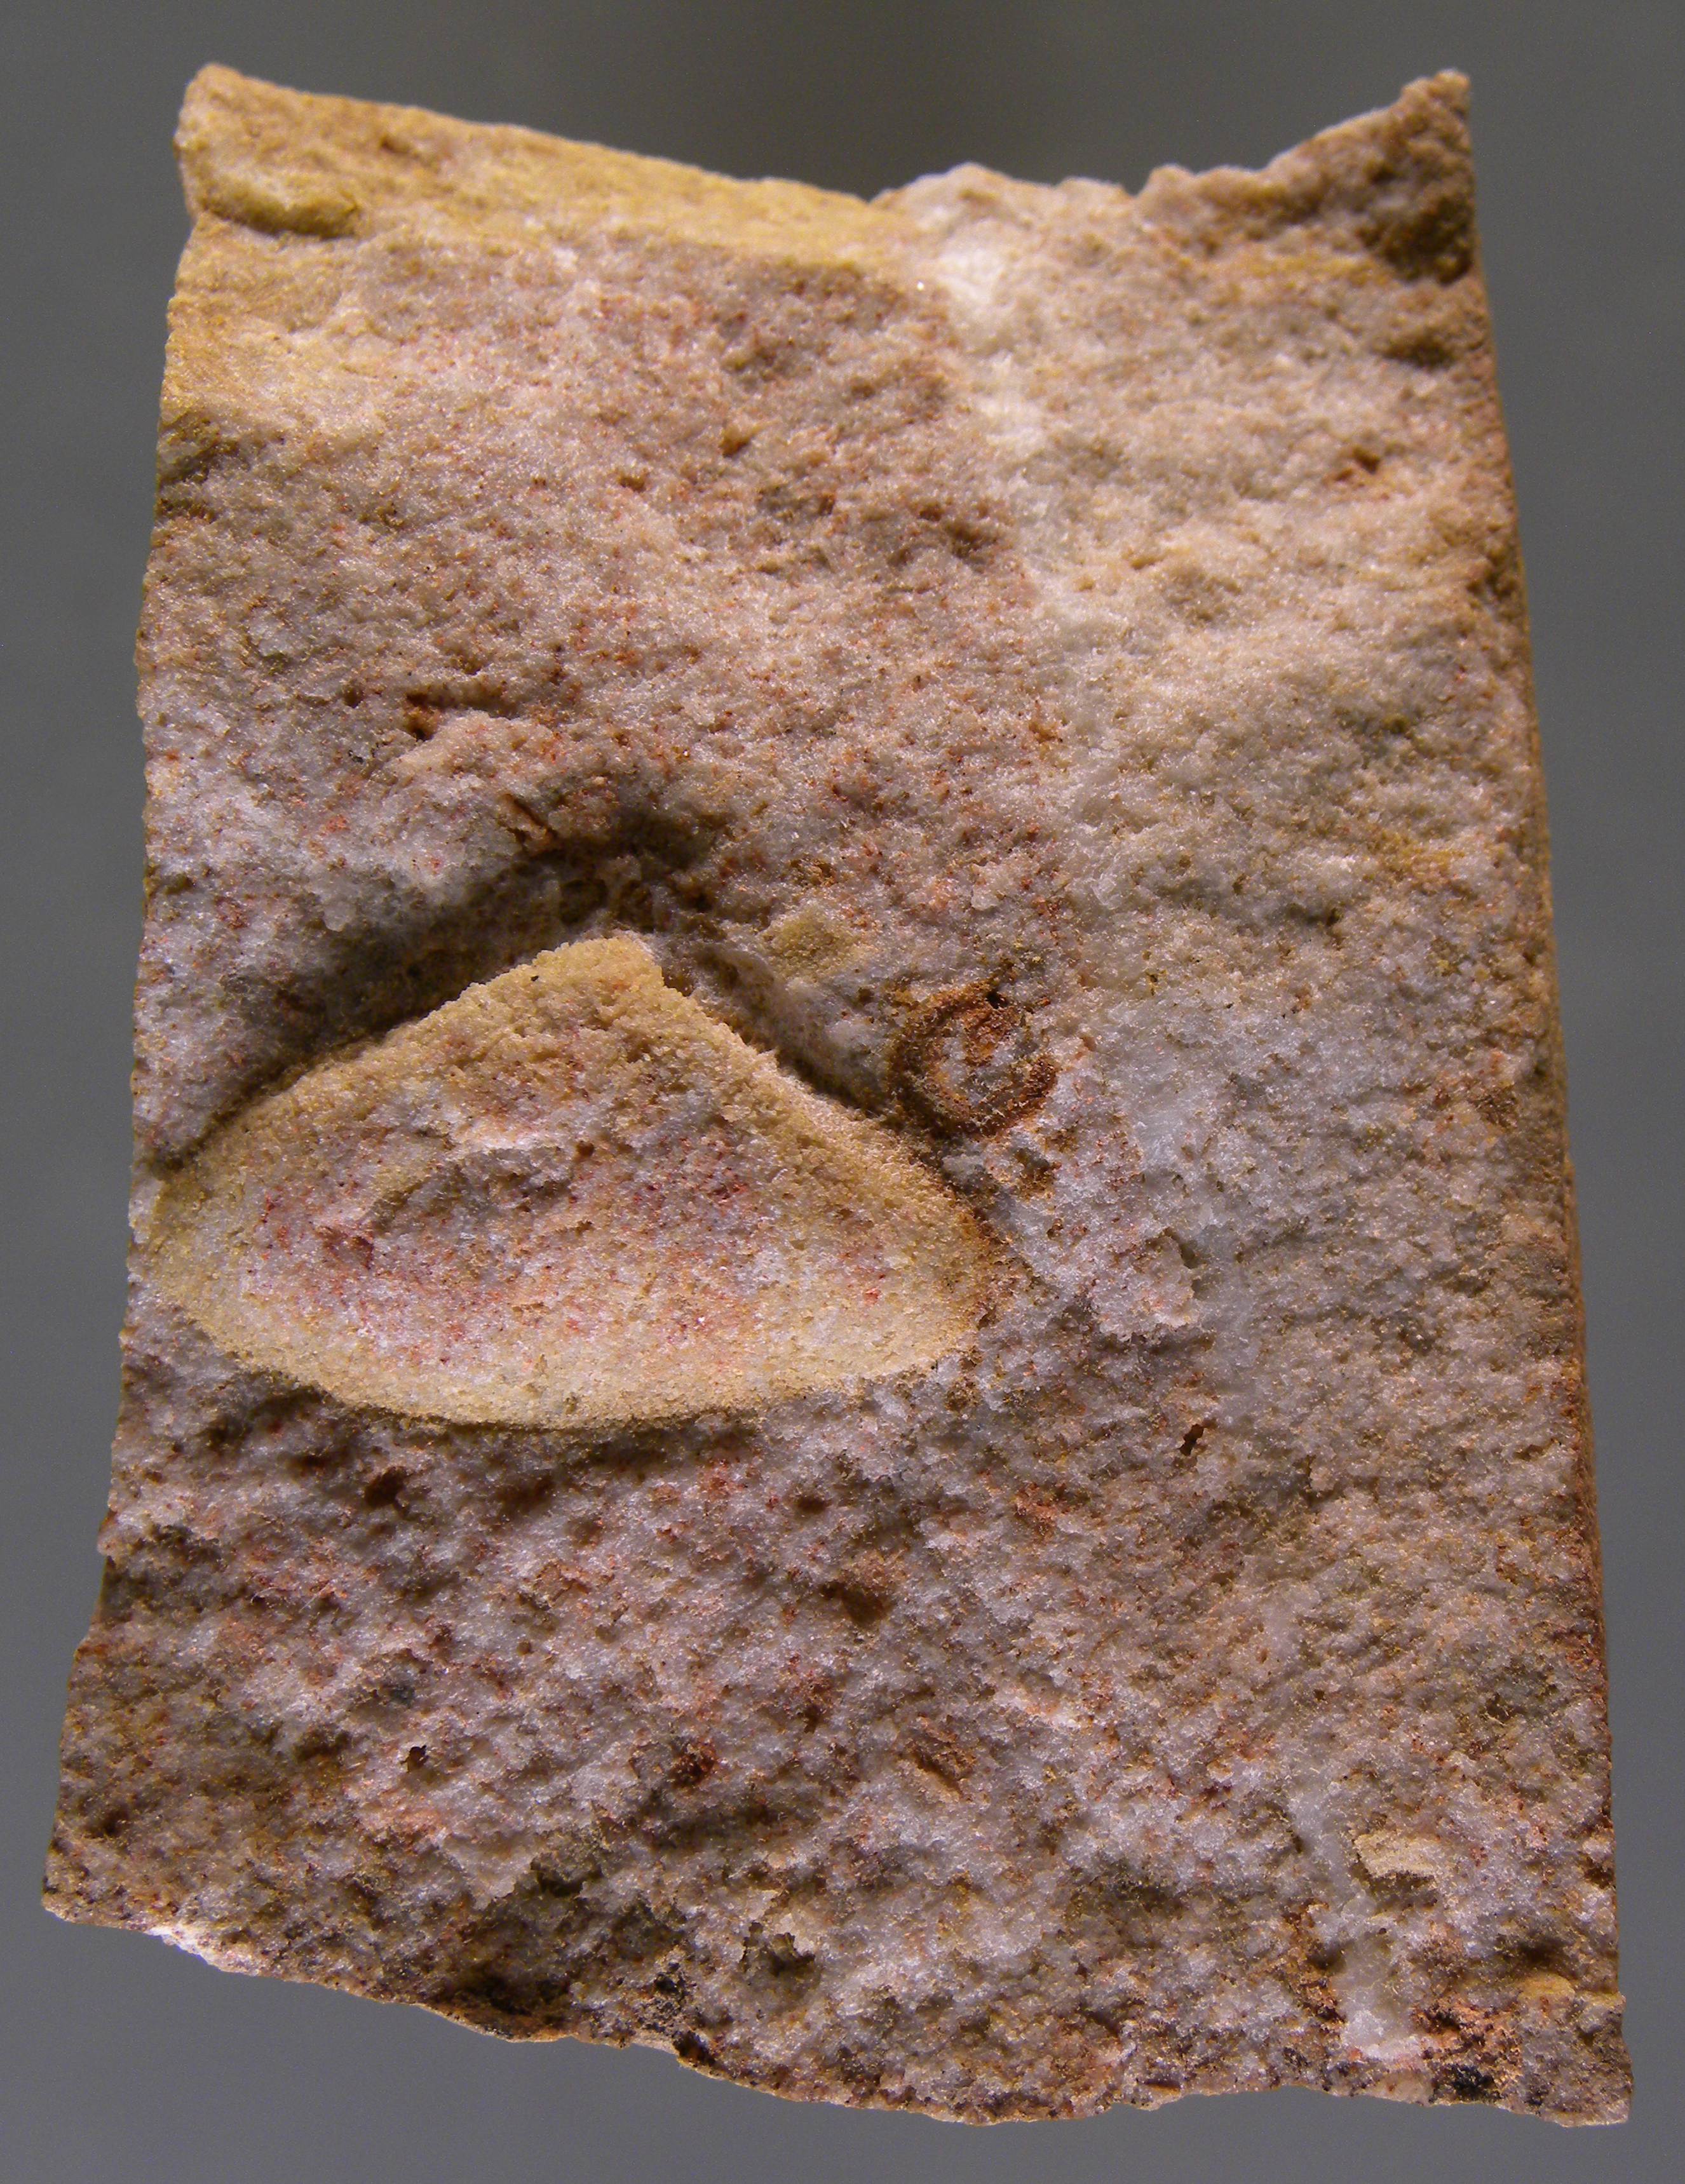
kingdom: Animalia
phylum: Mollusca
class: Bivalvia
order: Nuculanida
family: Nuculanidae
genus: Phestia
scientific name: Phestia
